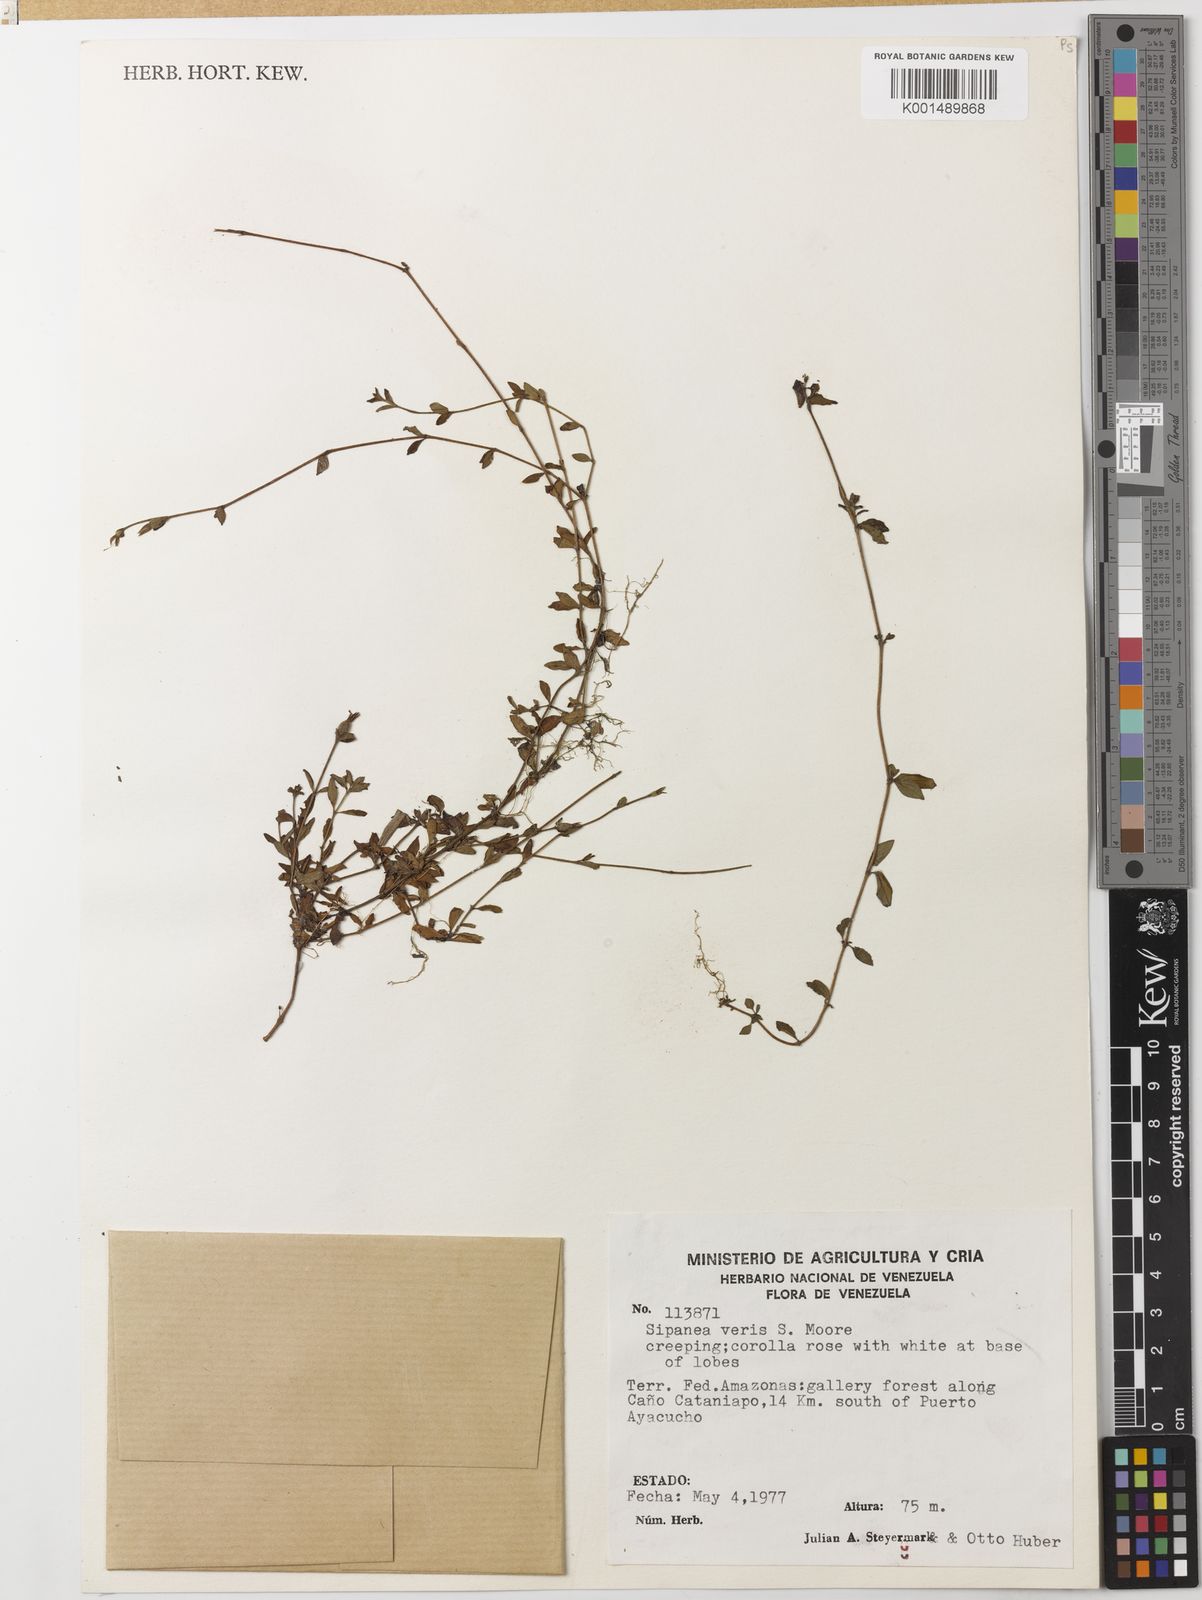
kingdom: Plantae
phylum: Tracheophyta
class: Magnoliopsida
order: Gentianales
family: Rubiaceae
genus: Sipanea
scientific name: Sipanea veris
